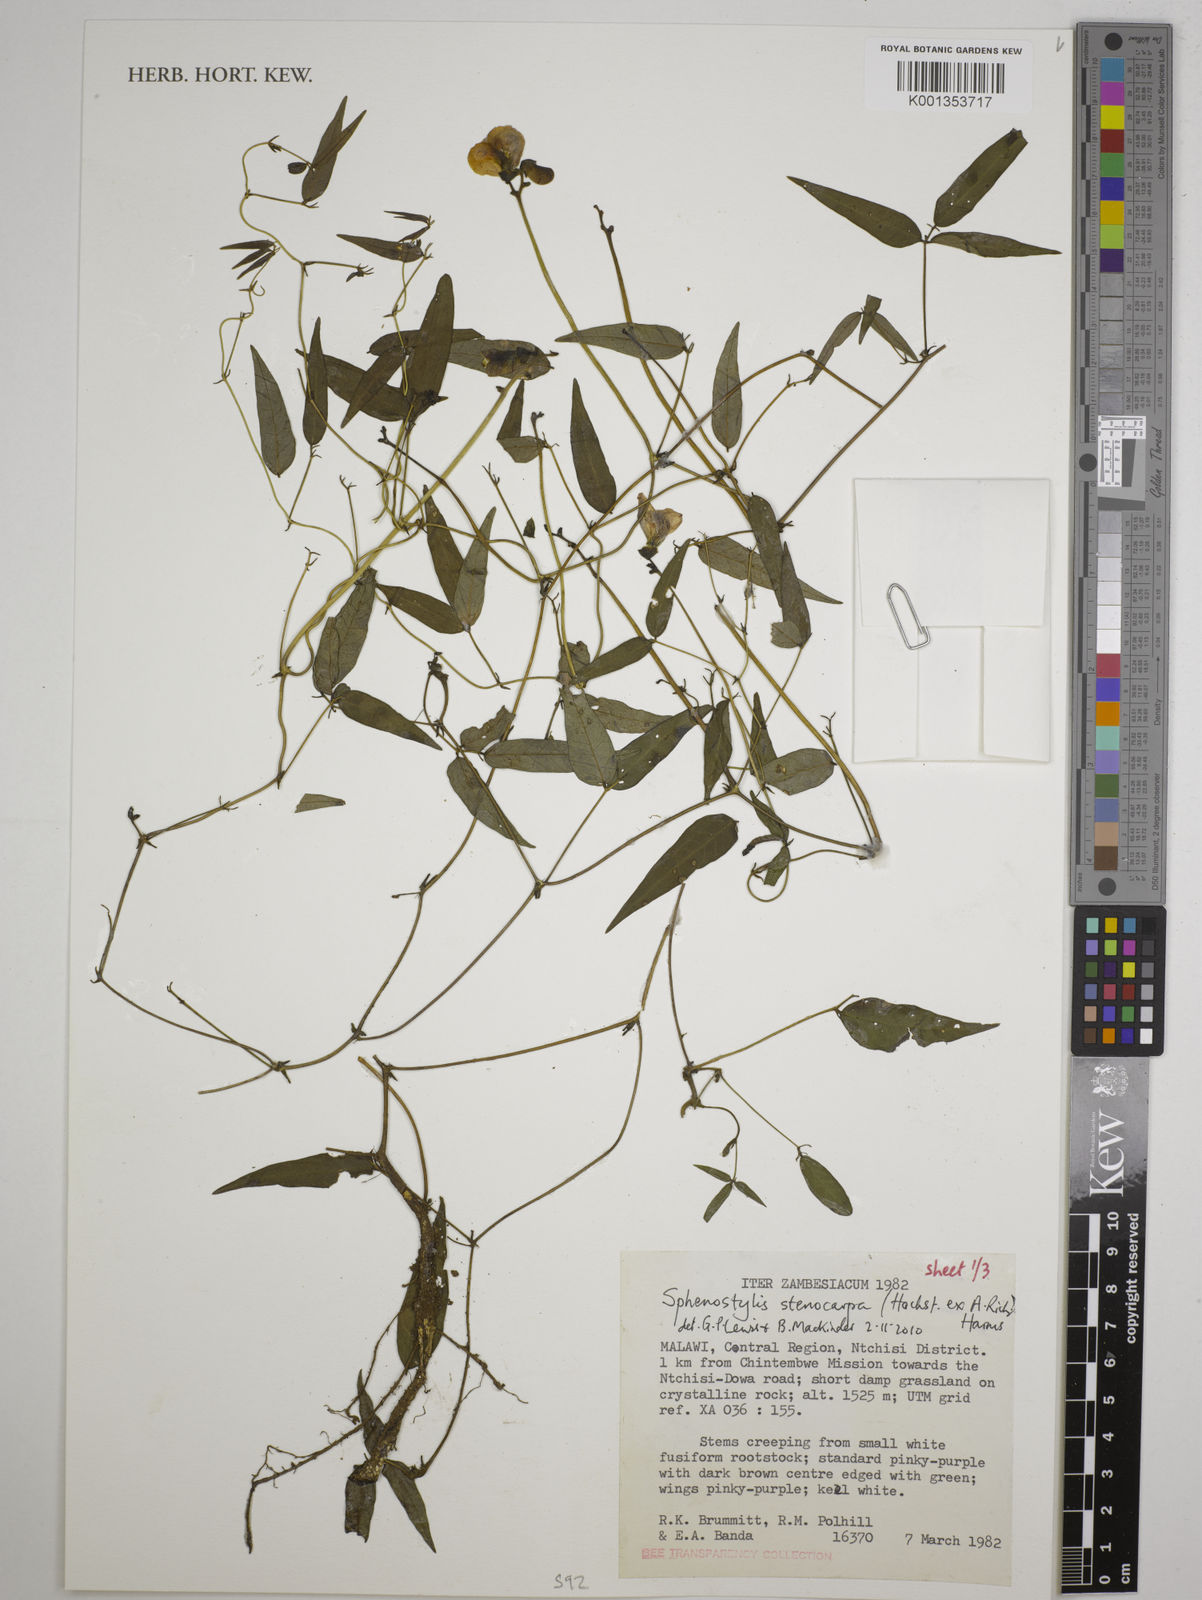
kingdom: Plantae
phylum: Tracheophyta
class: Magnoliopsida
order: Fabales
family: Fabaceae
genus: Sphenostylis
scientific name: Sphenostylis stenocarpa
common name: Yam-pea
